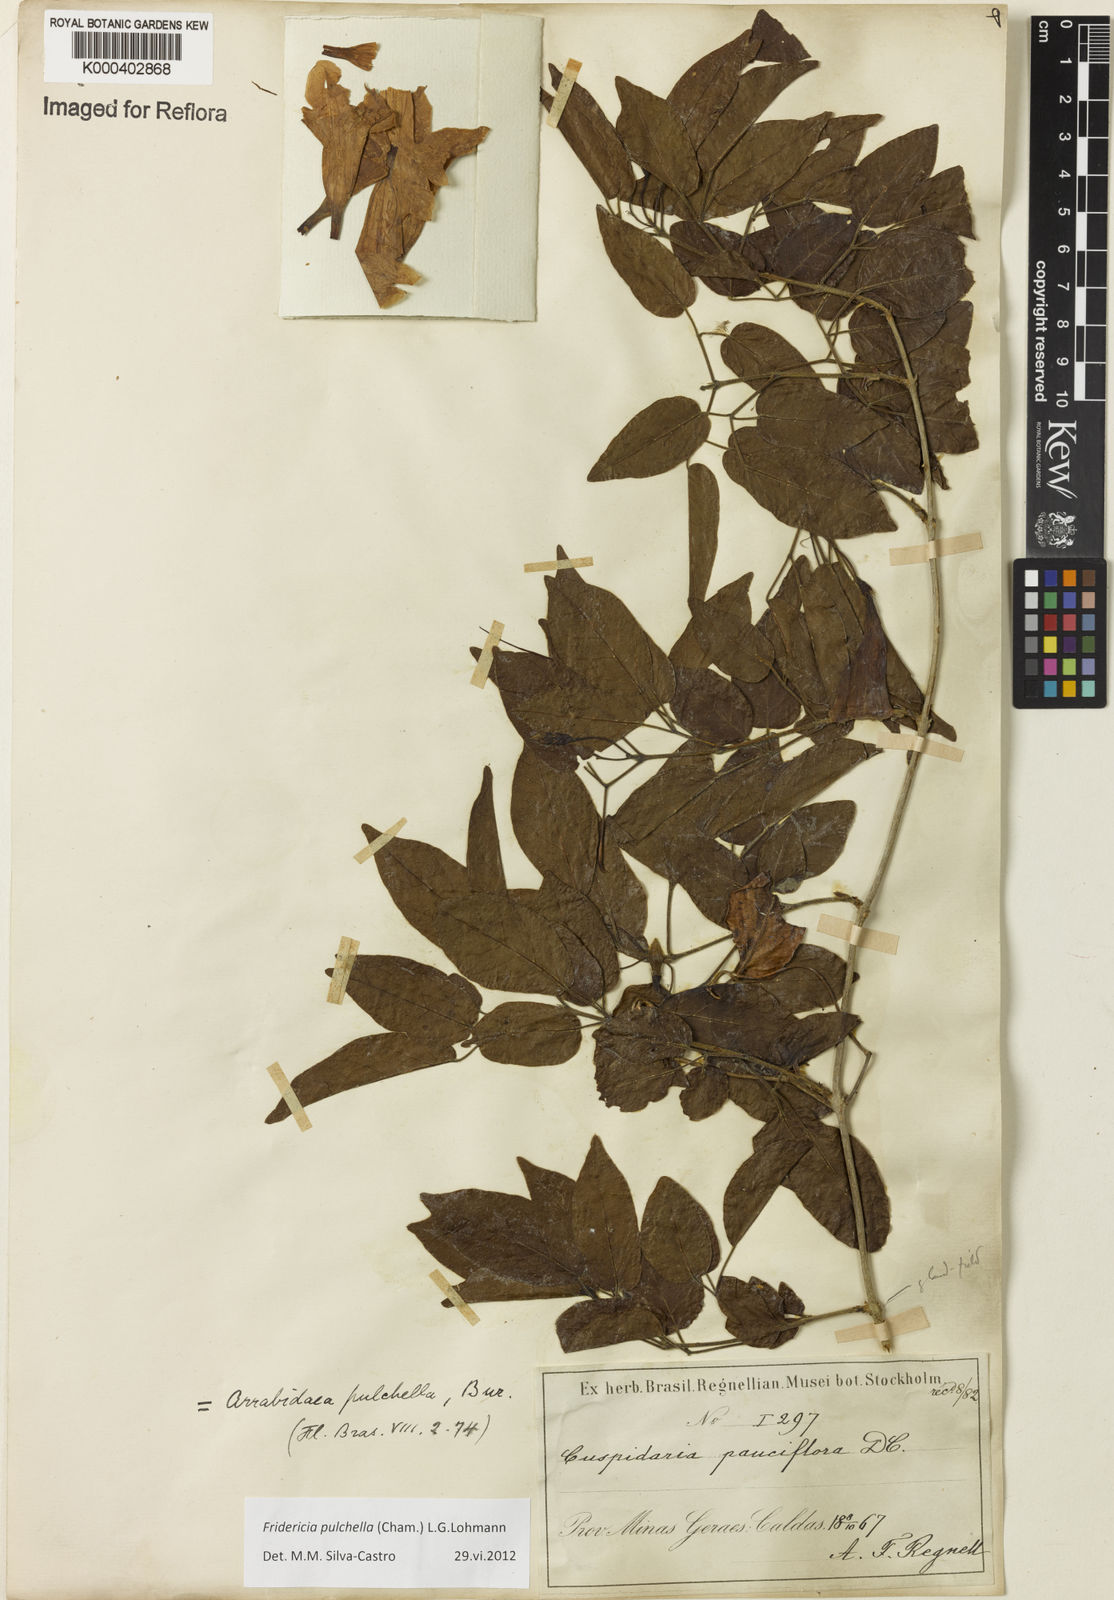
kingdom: Plantae
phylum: Tracheophyta
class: Magnoliopsida
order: Lamiales
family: Bignoniaceae
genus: Fridericia
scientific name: Fridericia
